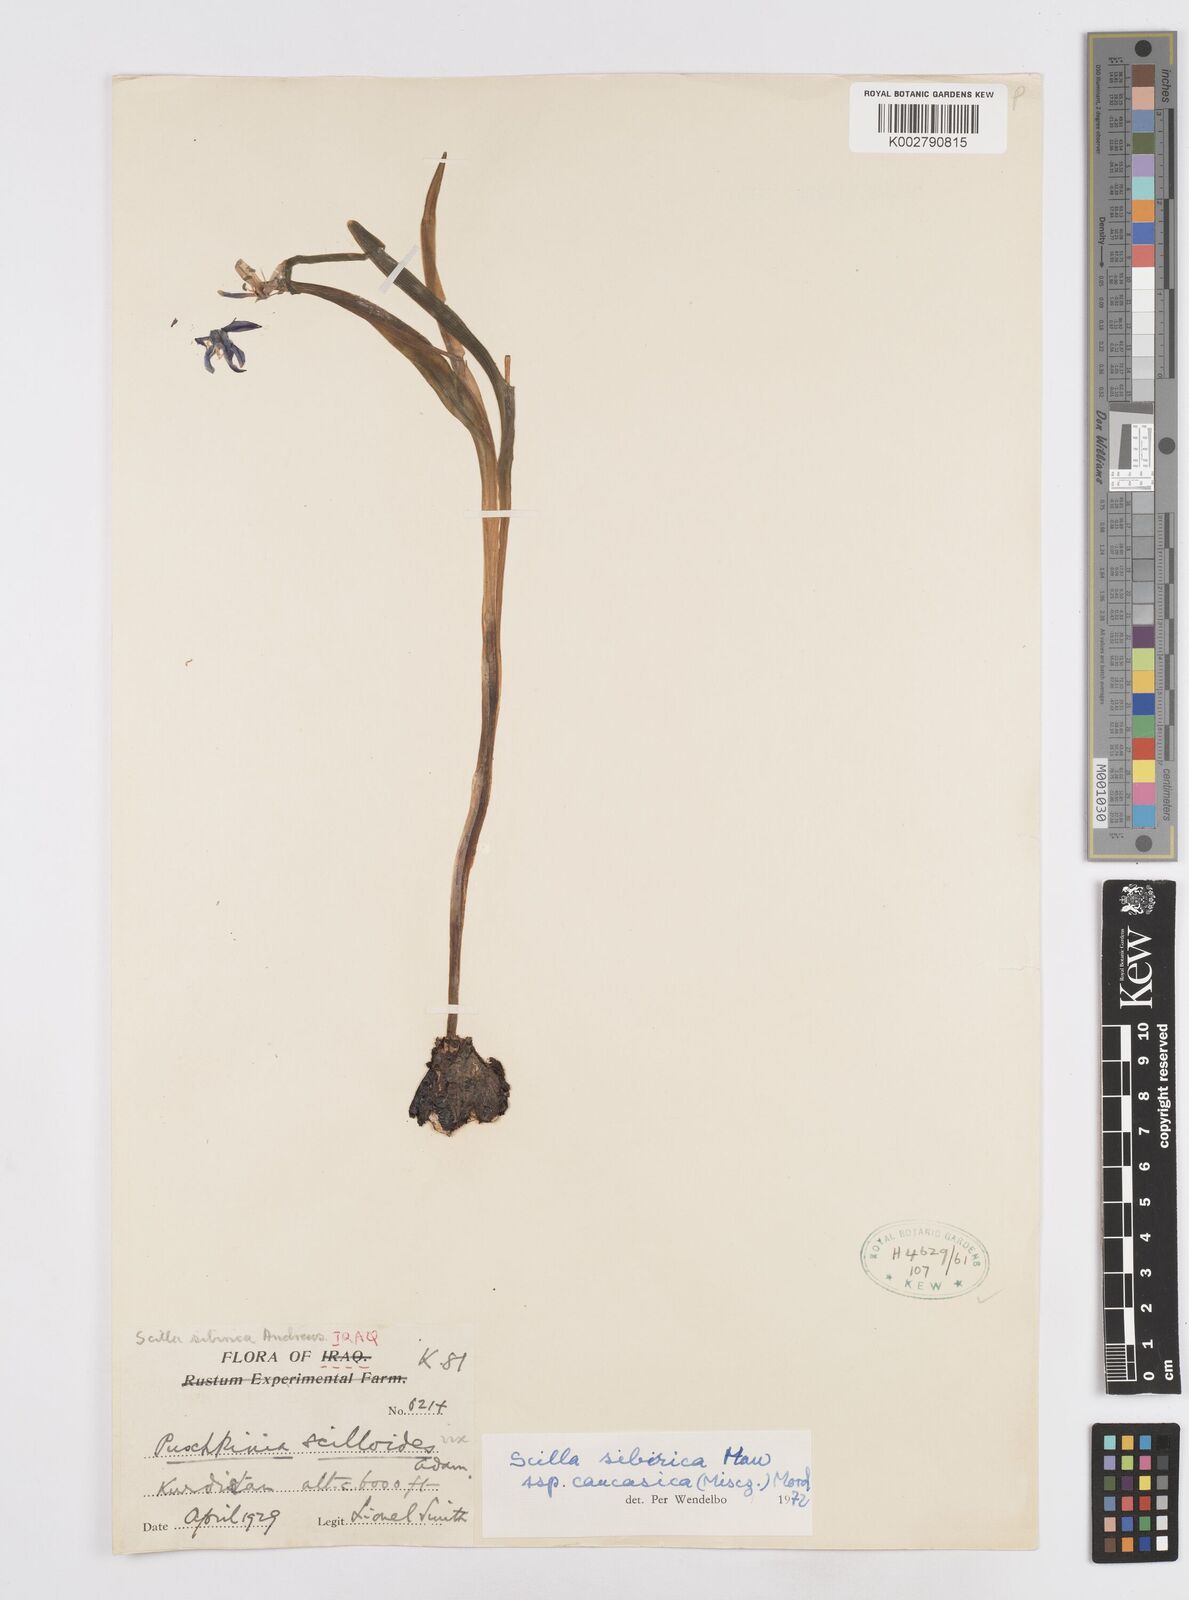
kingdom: Plantae
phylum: Tracheophyta
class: Liliopsida
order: Asparagales
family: Asparagaceae
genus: Scilla
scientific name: Scilla siberica
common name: Siberian squill
